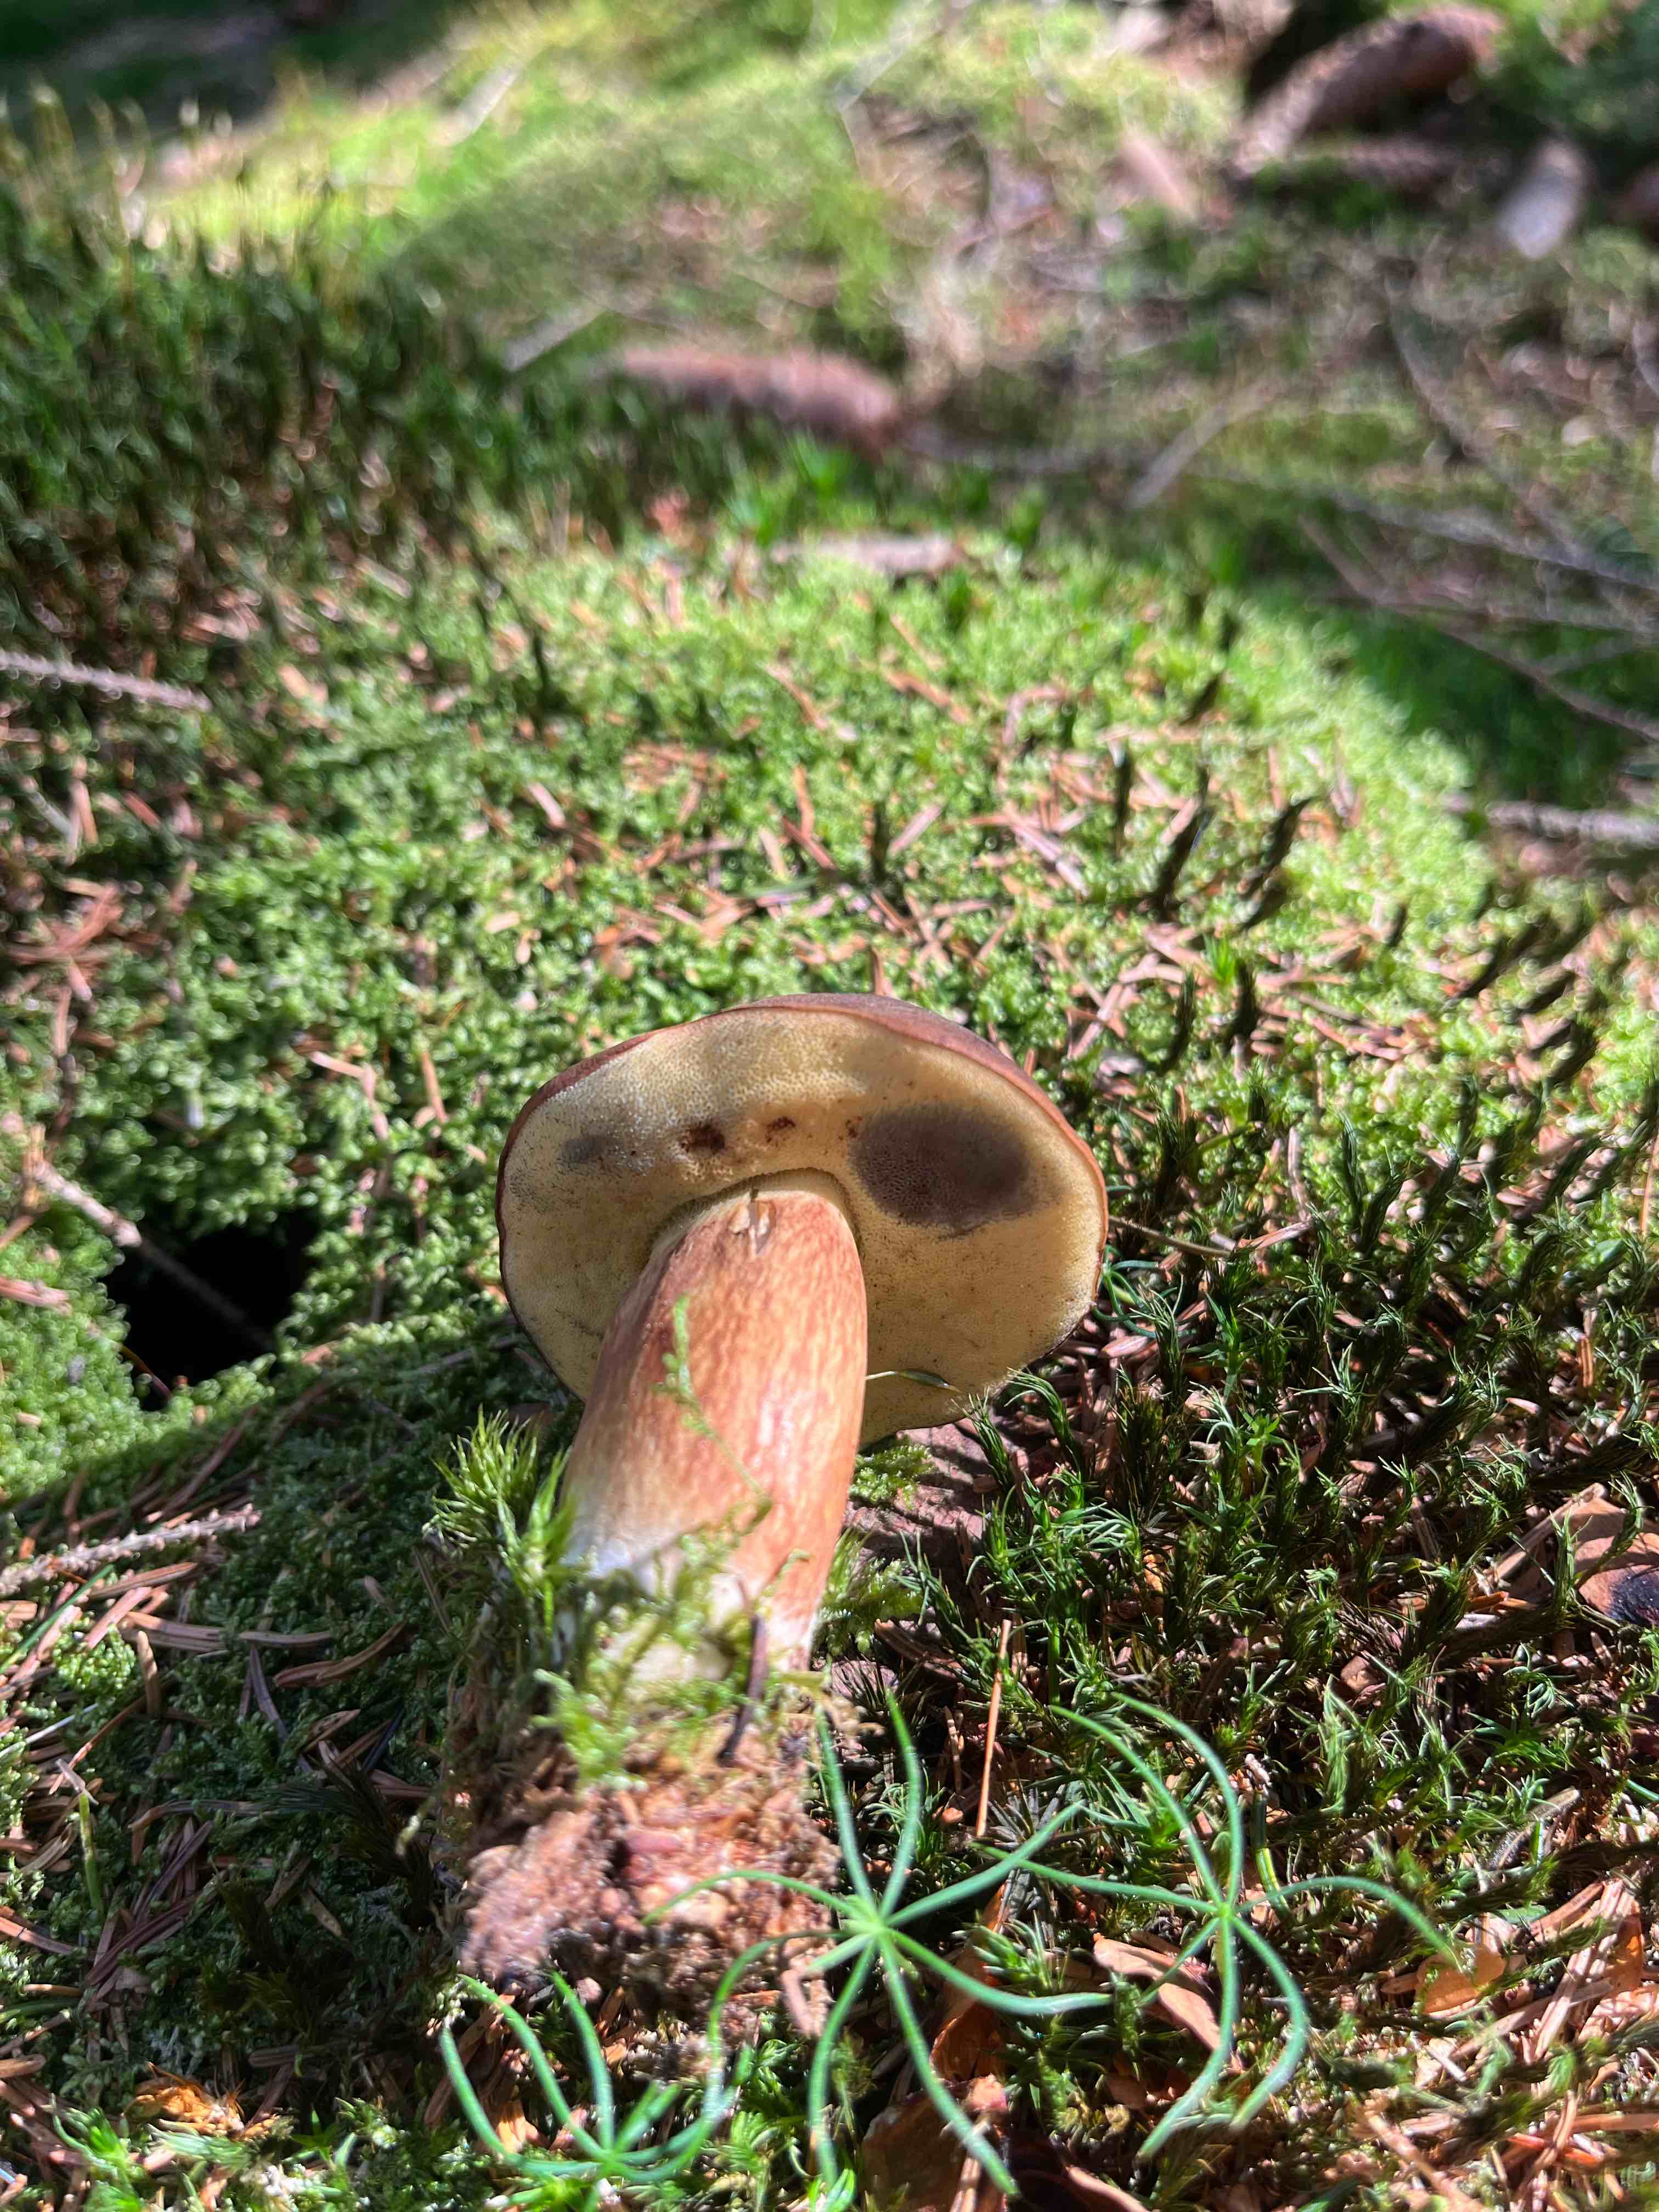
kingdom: Fungi
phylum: Basidiomycota
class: Agaricomycetes
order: Boletales
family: Boletaceae
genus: Imleria
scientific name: Imleria badia
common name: brunstokket rørhat
